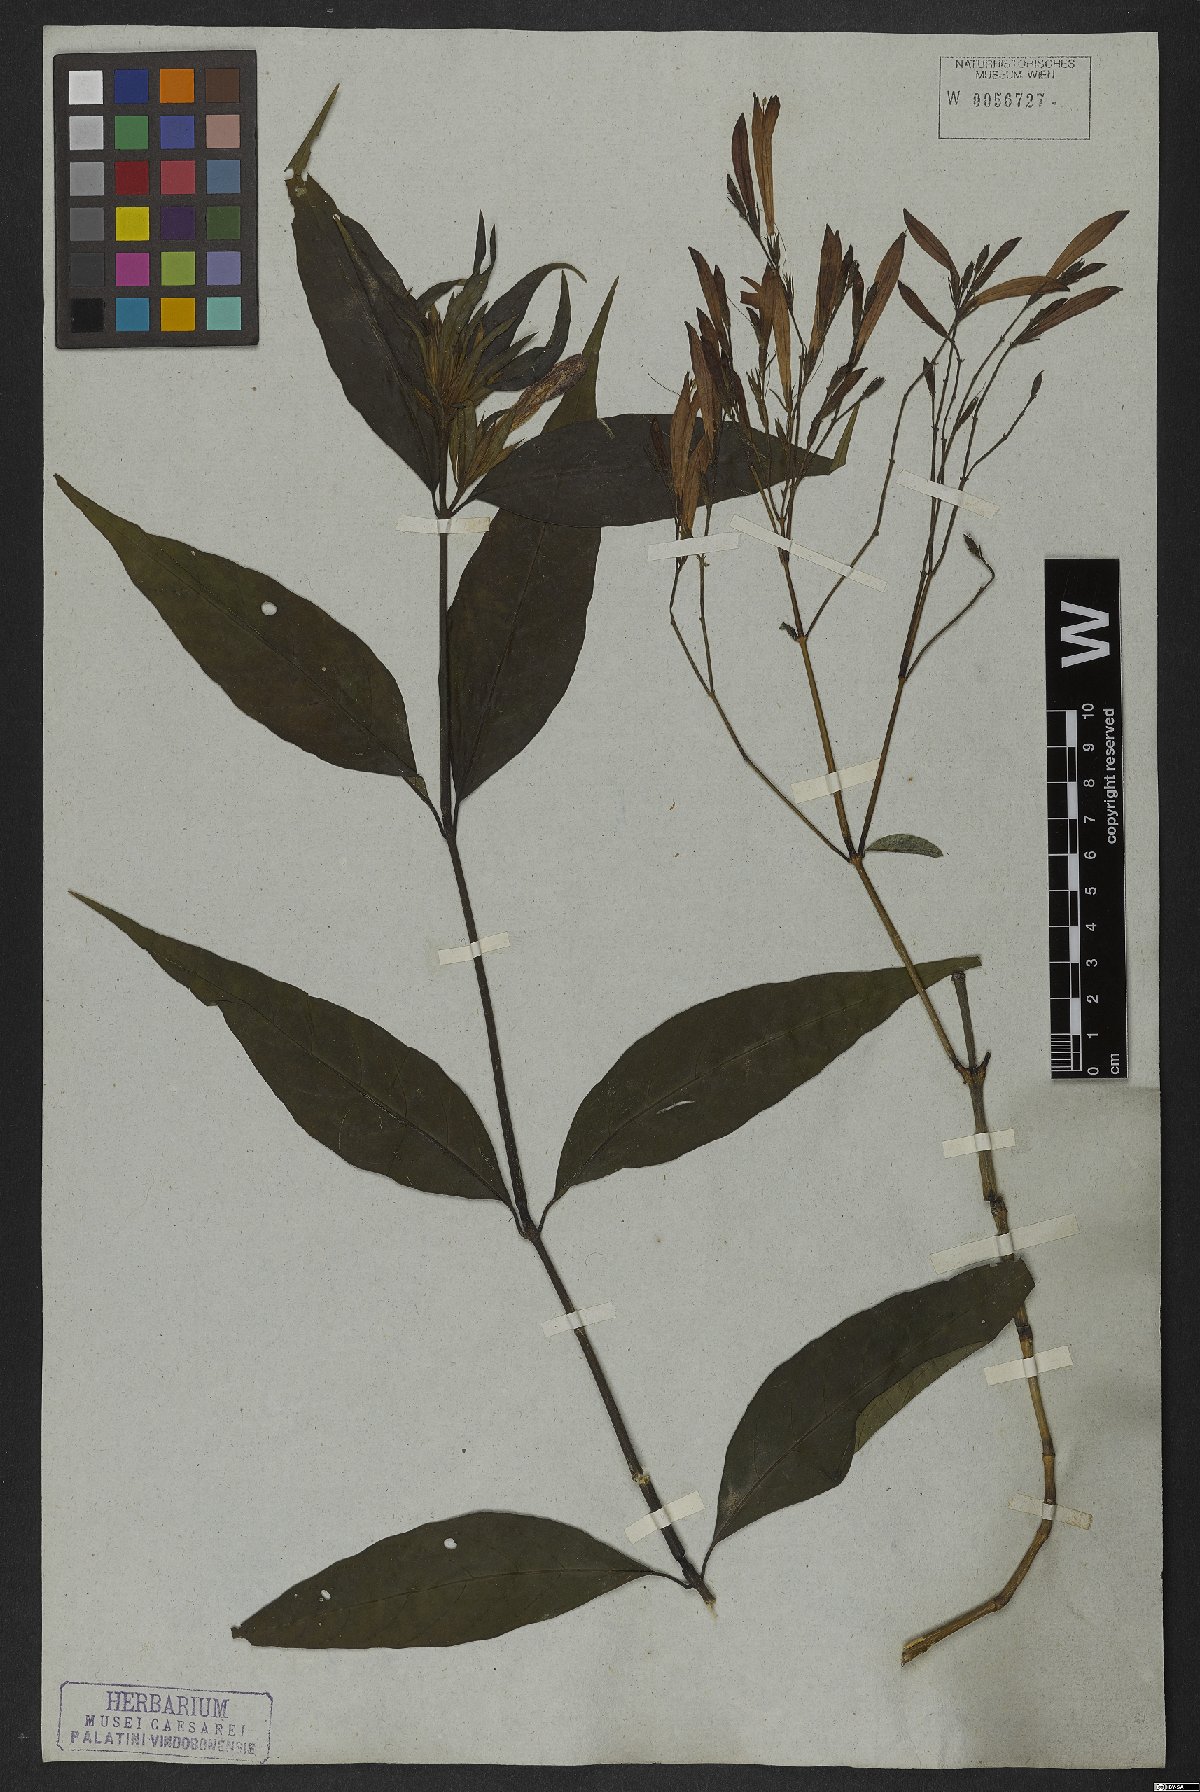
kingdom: Plantae
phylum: Tracheophyta
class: Magnoliopsida
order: Lamiales
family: Acanthaceae
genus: Justicia
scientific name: Justicia polita
